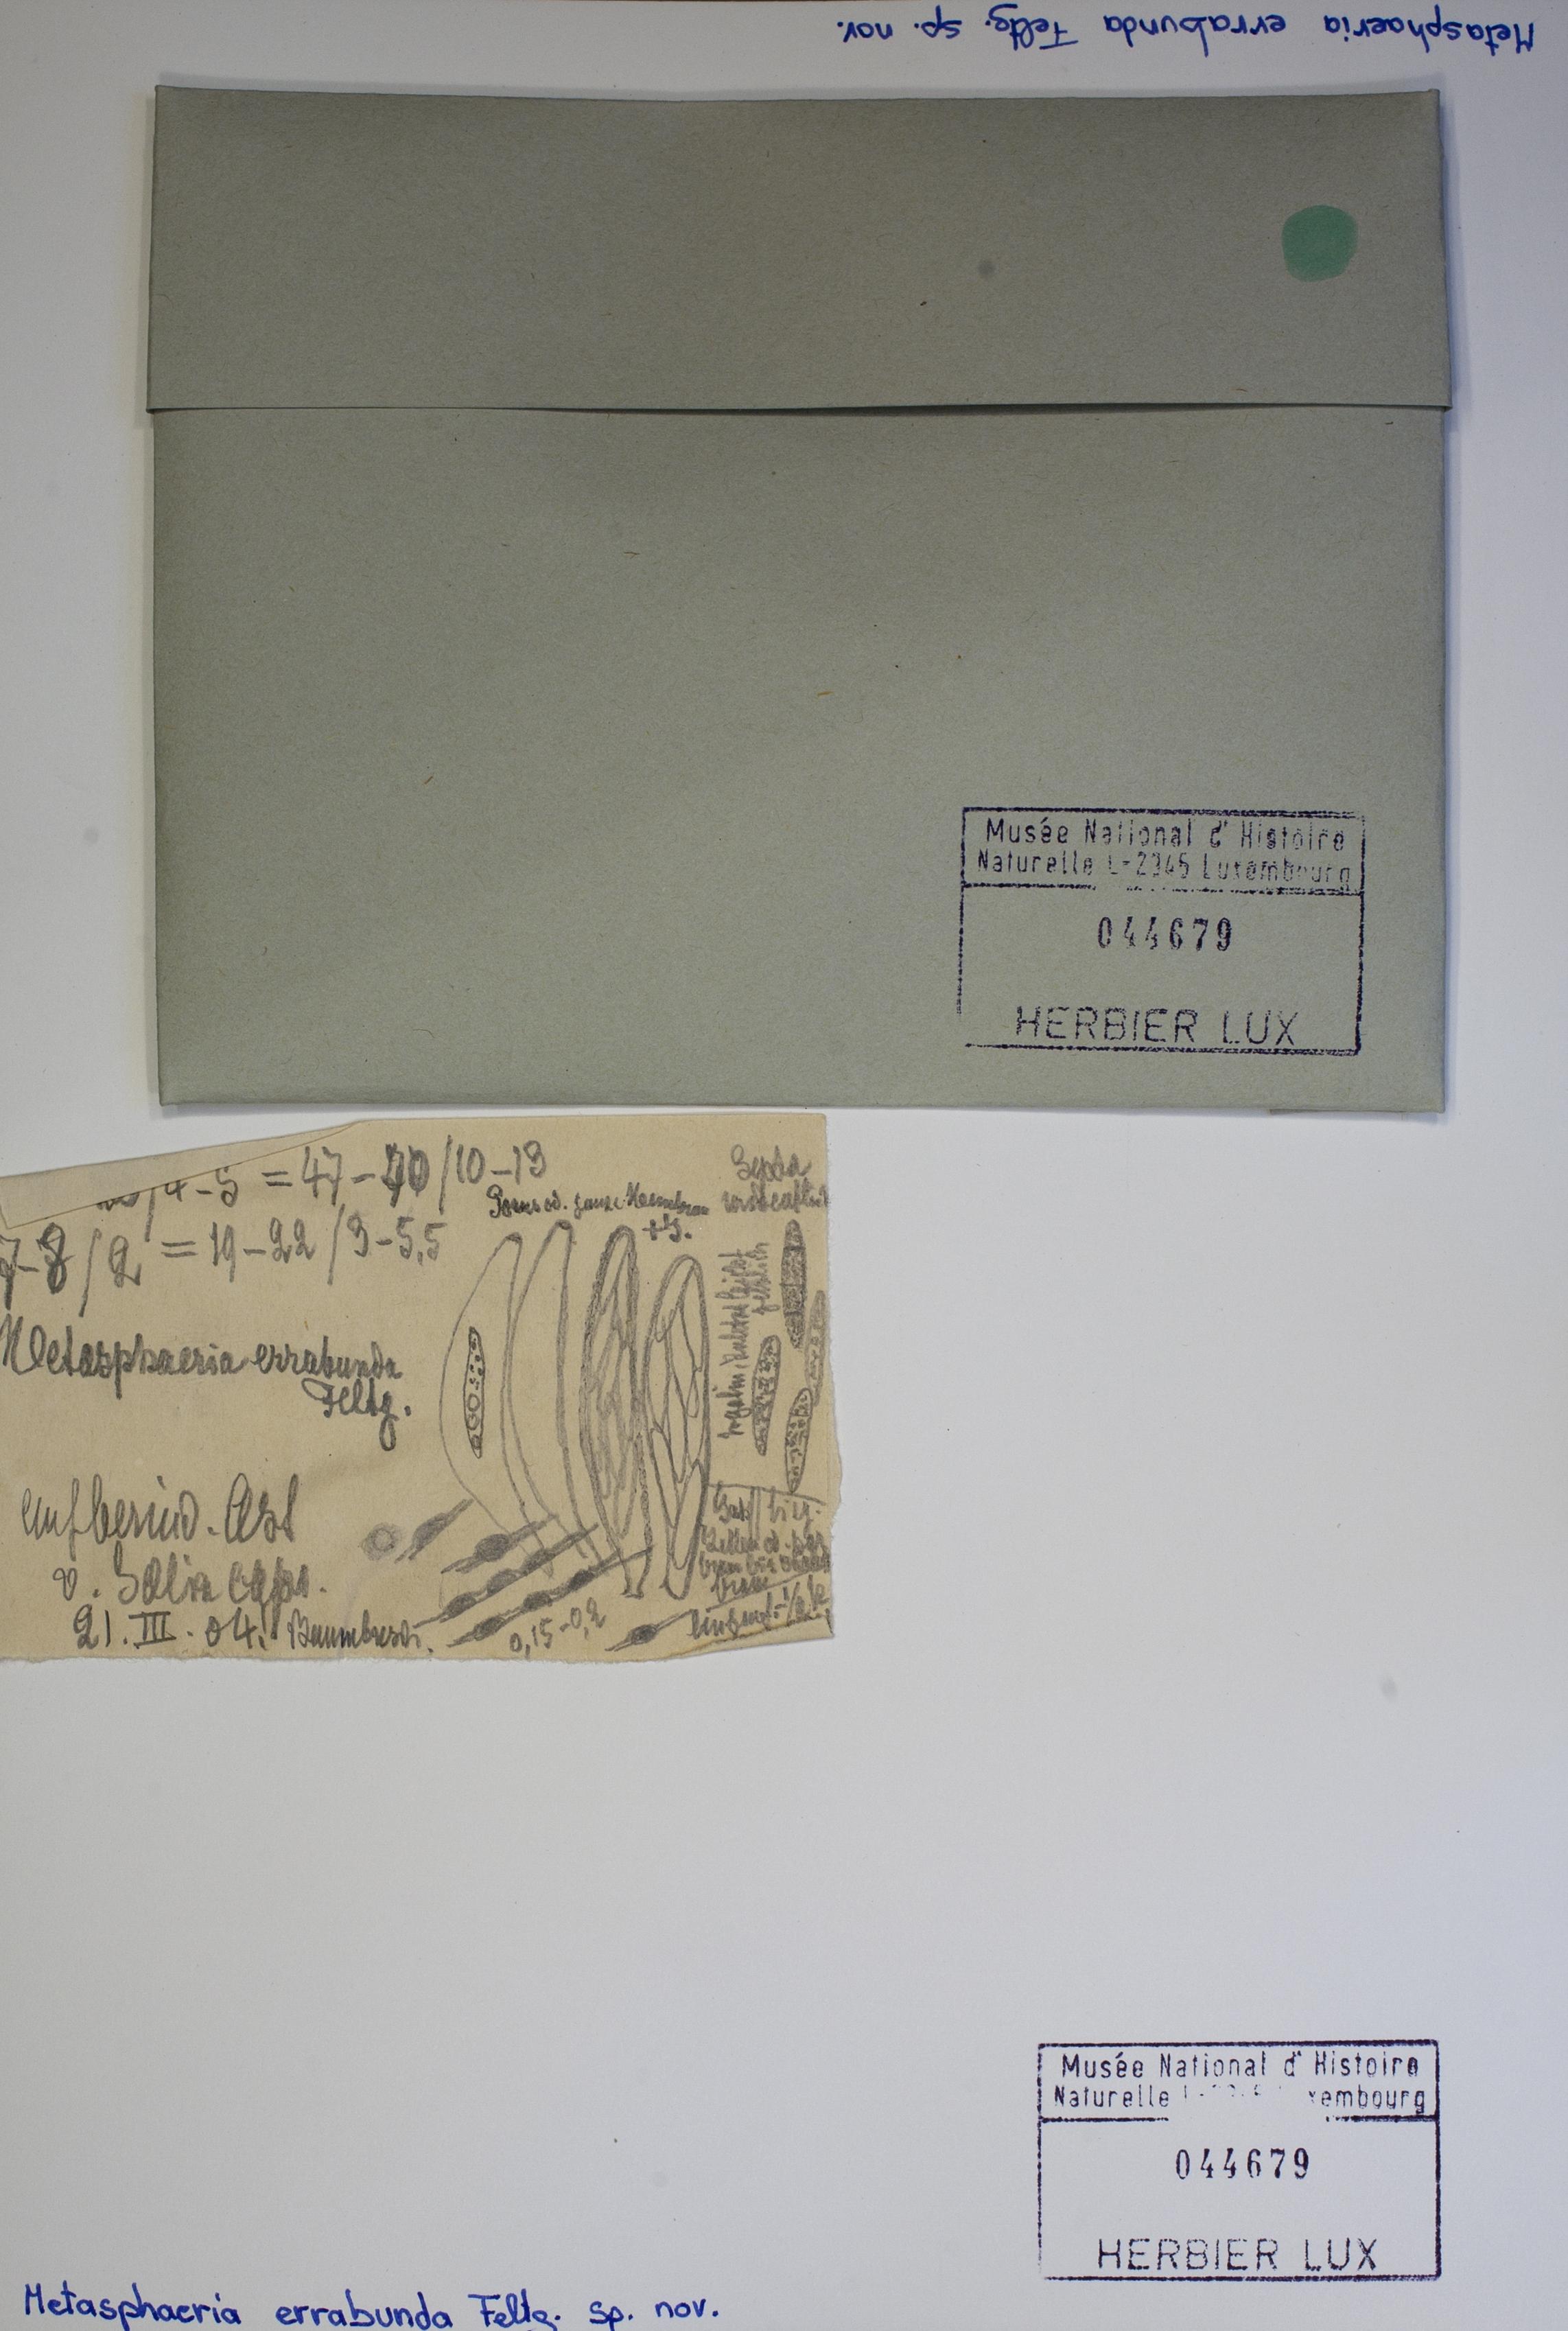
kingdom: Fungi
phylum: Ascomycota
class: Dothideomycetes
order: Dothideales
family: Saccotheciaceae
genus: Metasphaeria
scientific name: Metasphaeria errabunda
